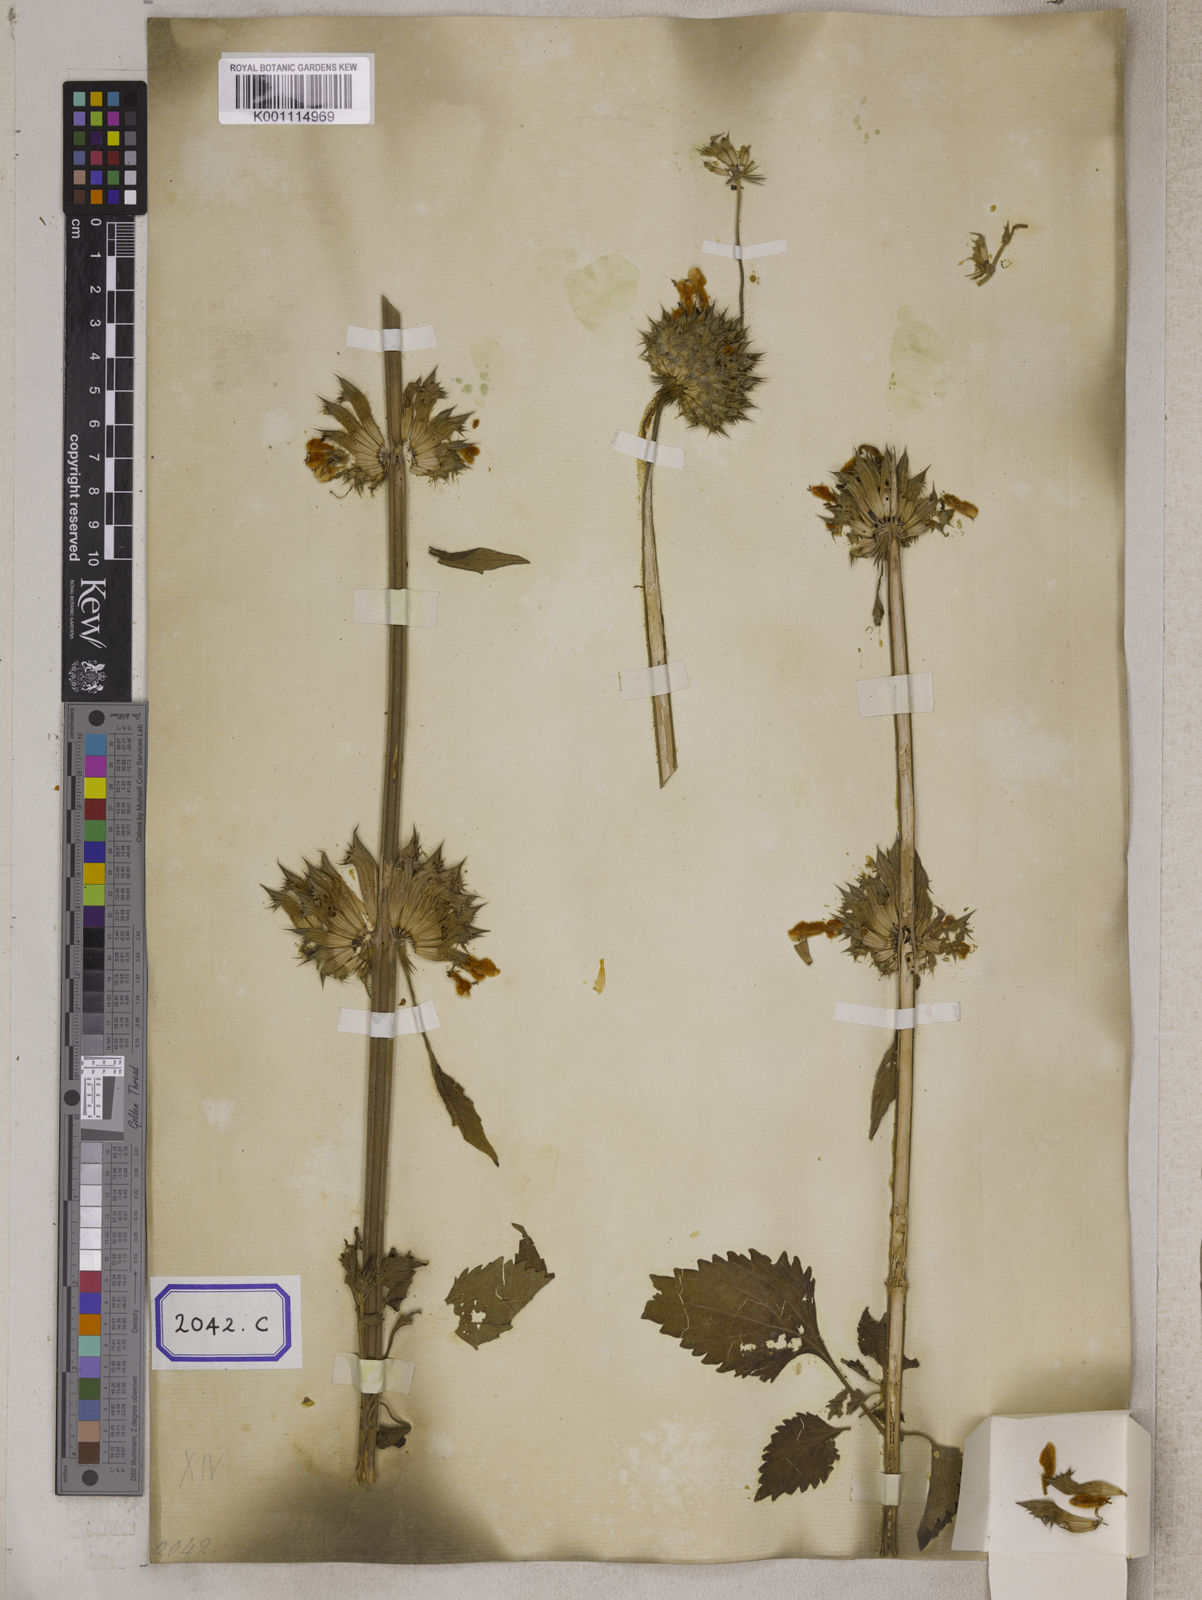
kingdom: Plantae
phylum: Tracheophyta
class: Magnoliopsida
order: Lamiales
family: Lamiaceae
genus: Leonotis
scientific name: Leonotis nepetifolia
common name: Christmas candlestick
